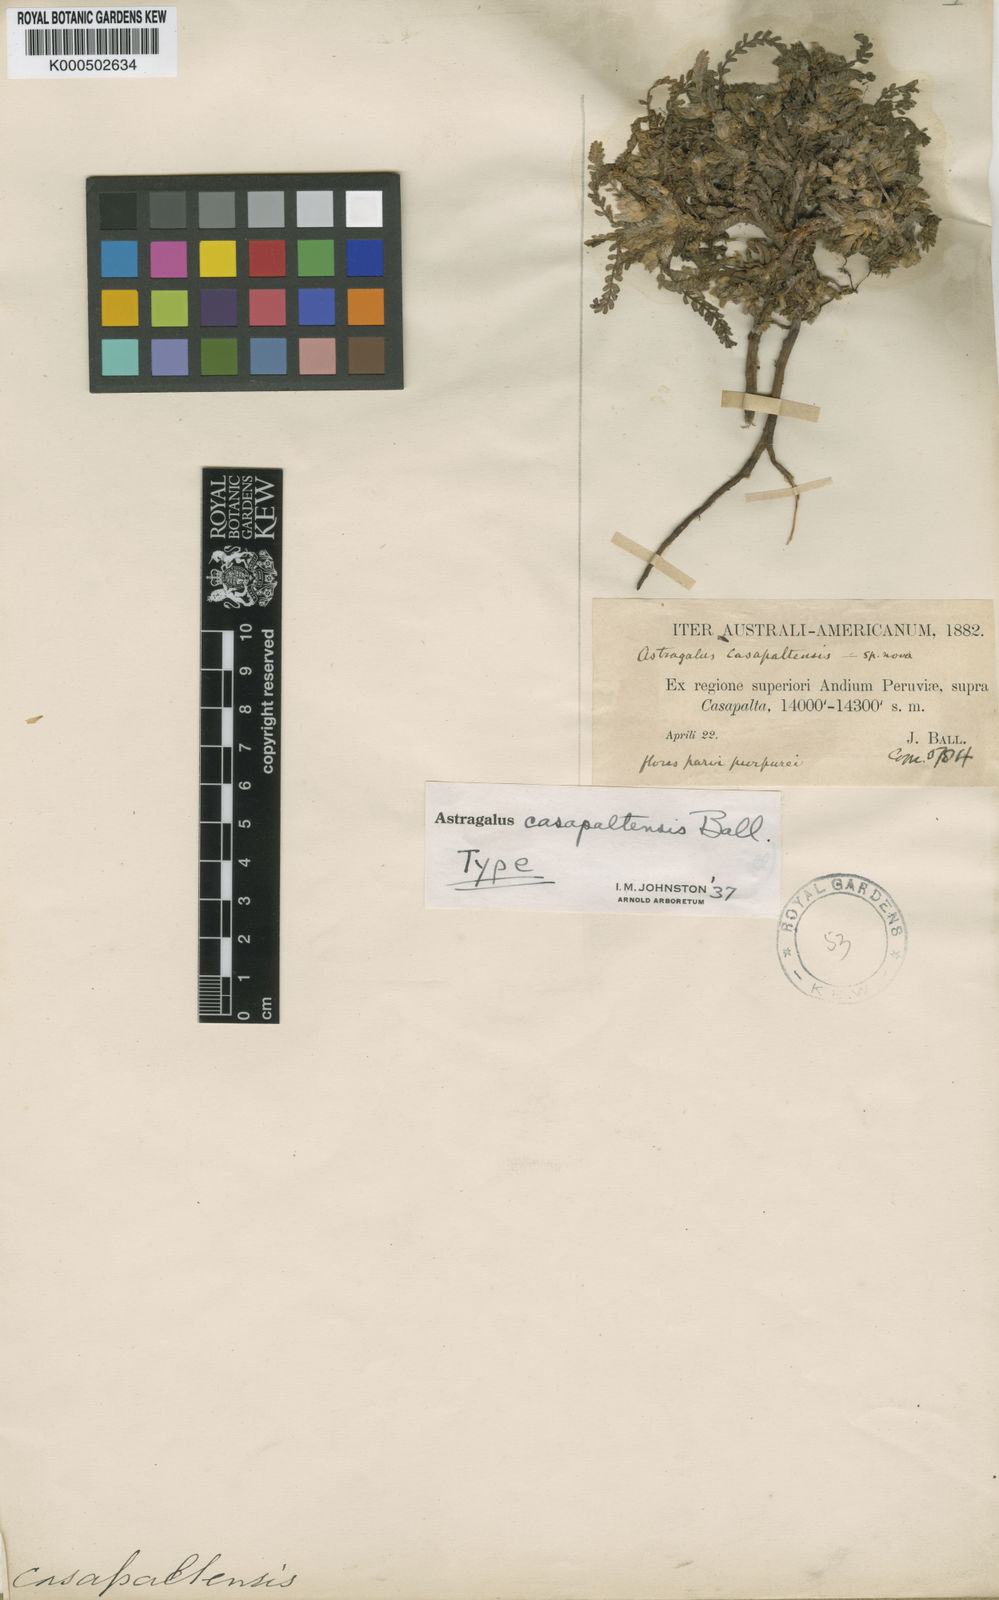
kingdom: Plantae
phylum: Tracheophyta
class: Magnoliopsida
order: Fabales
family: Fabaceae
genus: Astragalus
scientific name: Astragalus casapaltensis
